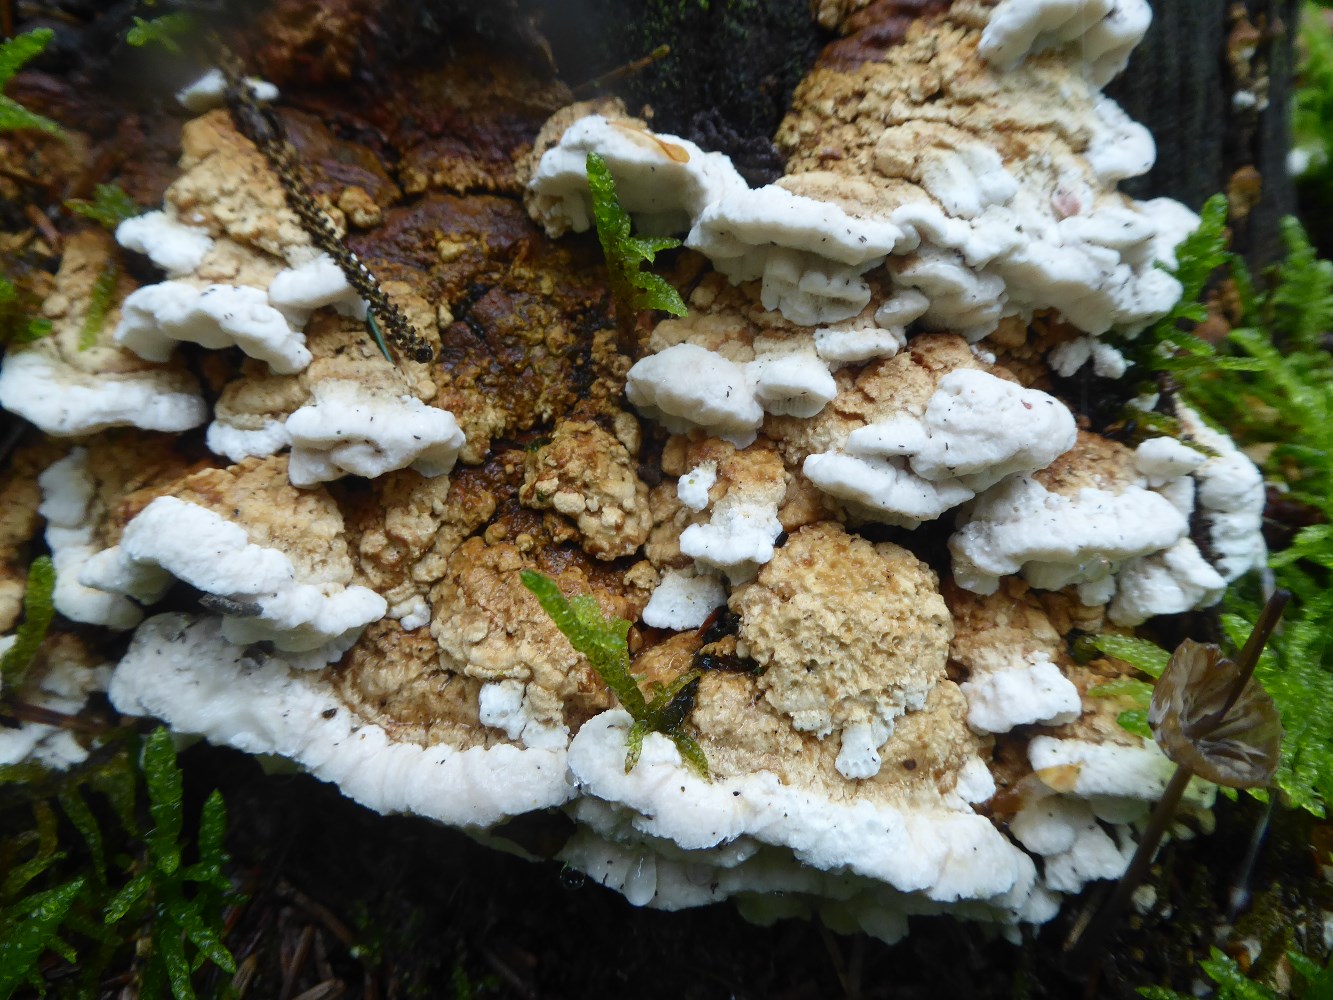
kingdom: Fungi
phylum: Basidiomycota
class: Agaricomycetes
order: Polyporales
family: Fomitopsidaceae
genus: Neoantrodia
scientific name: Neoantrodia serialis
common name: række-sejporesvamp
